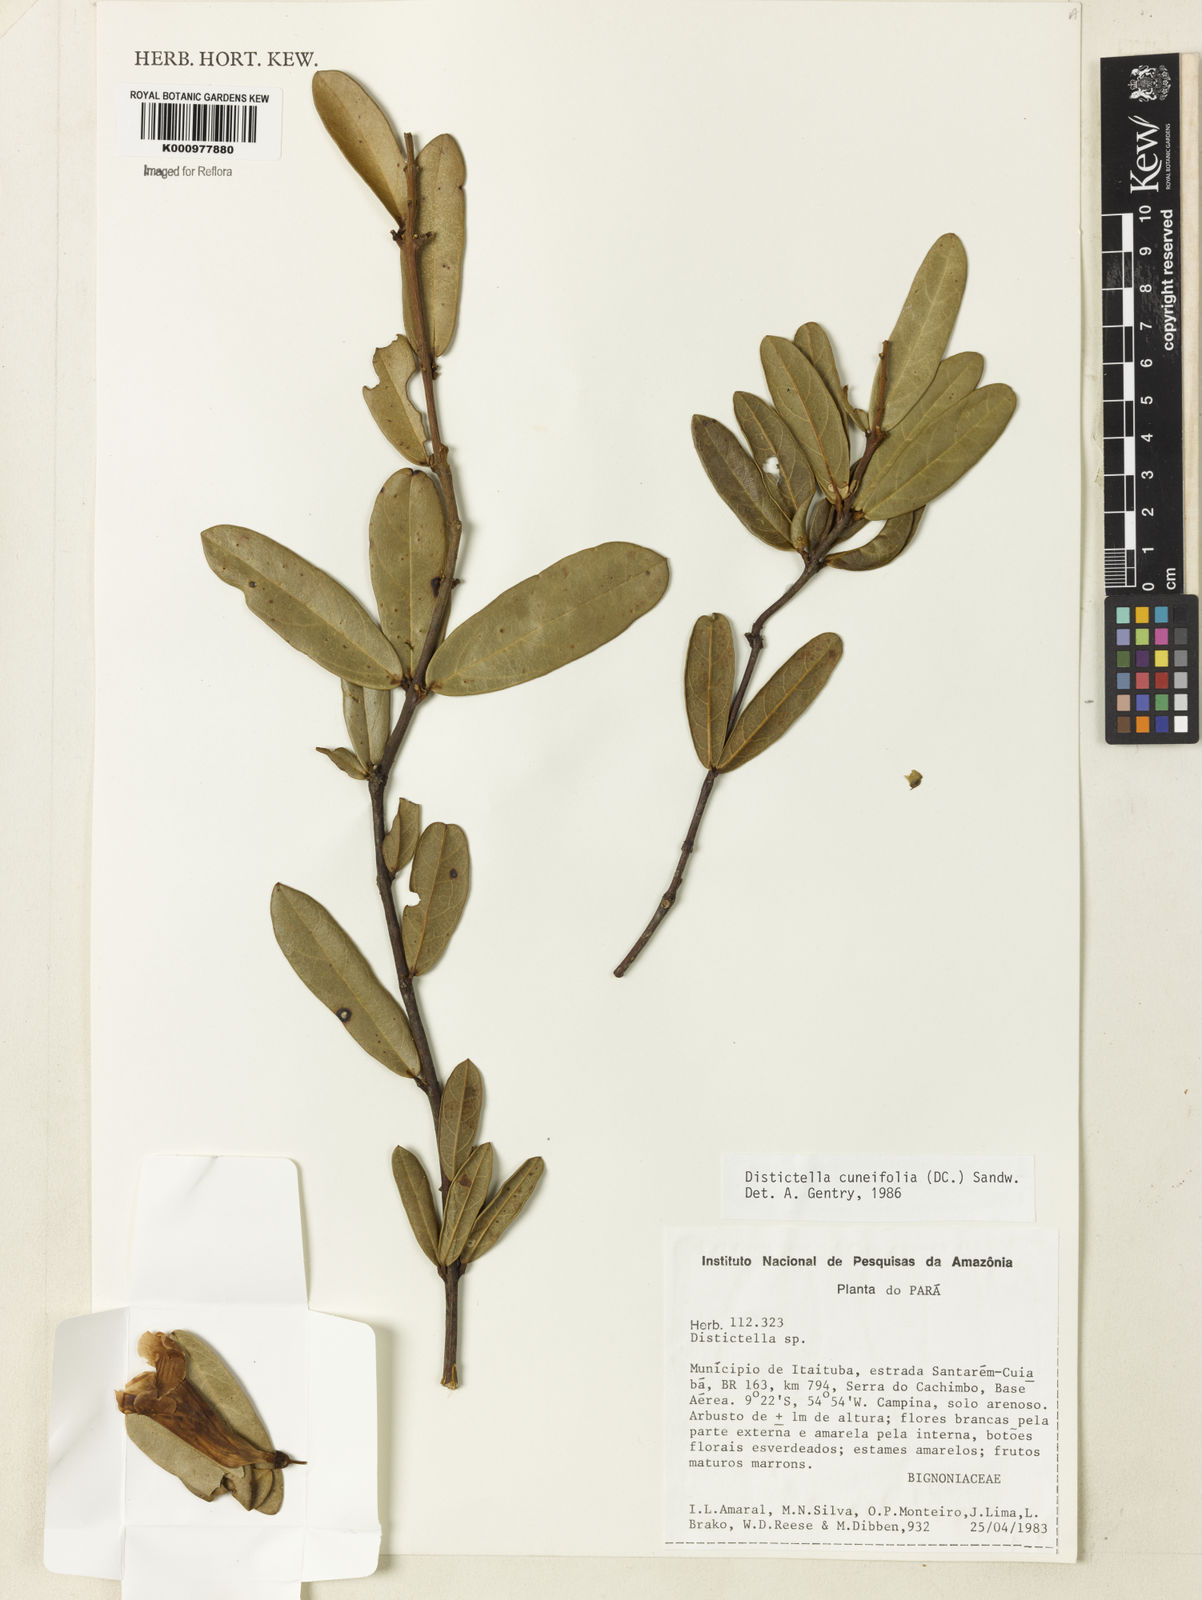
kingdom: Plantae
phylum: Tracheophyta
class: Magnoliopsida
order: Lamiales
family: Bignoniaceae
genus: Amphilophium
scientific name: Amphilophium cuneifolium
